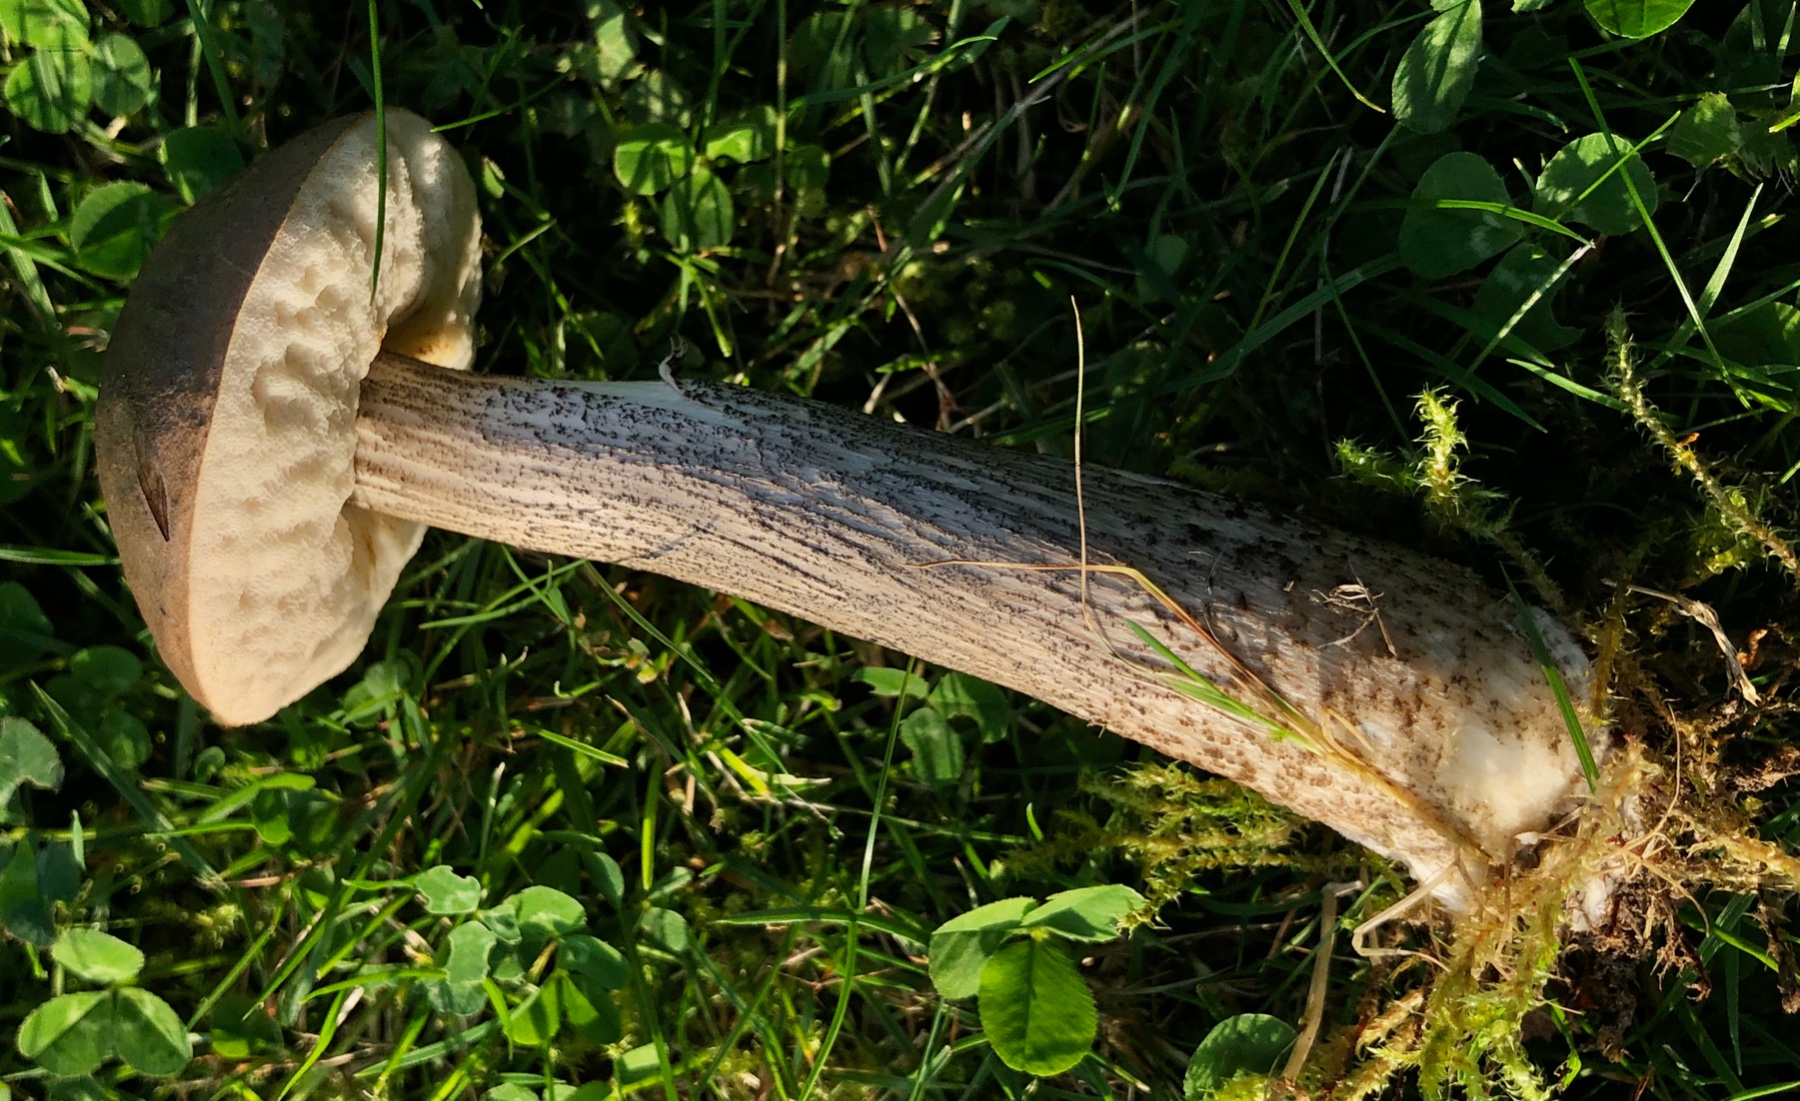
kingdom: Fungi
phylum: Basidiomycota
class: Agaricomycetes
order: Boletales
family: Boletaceae
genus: Leccinum
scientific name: Leccinum scabrum
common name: brun skælrørhat
